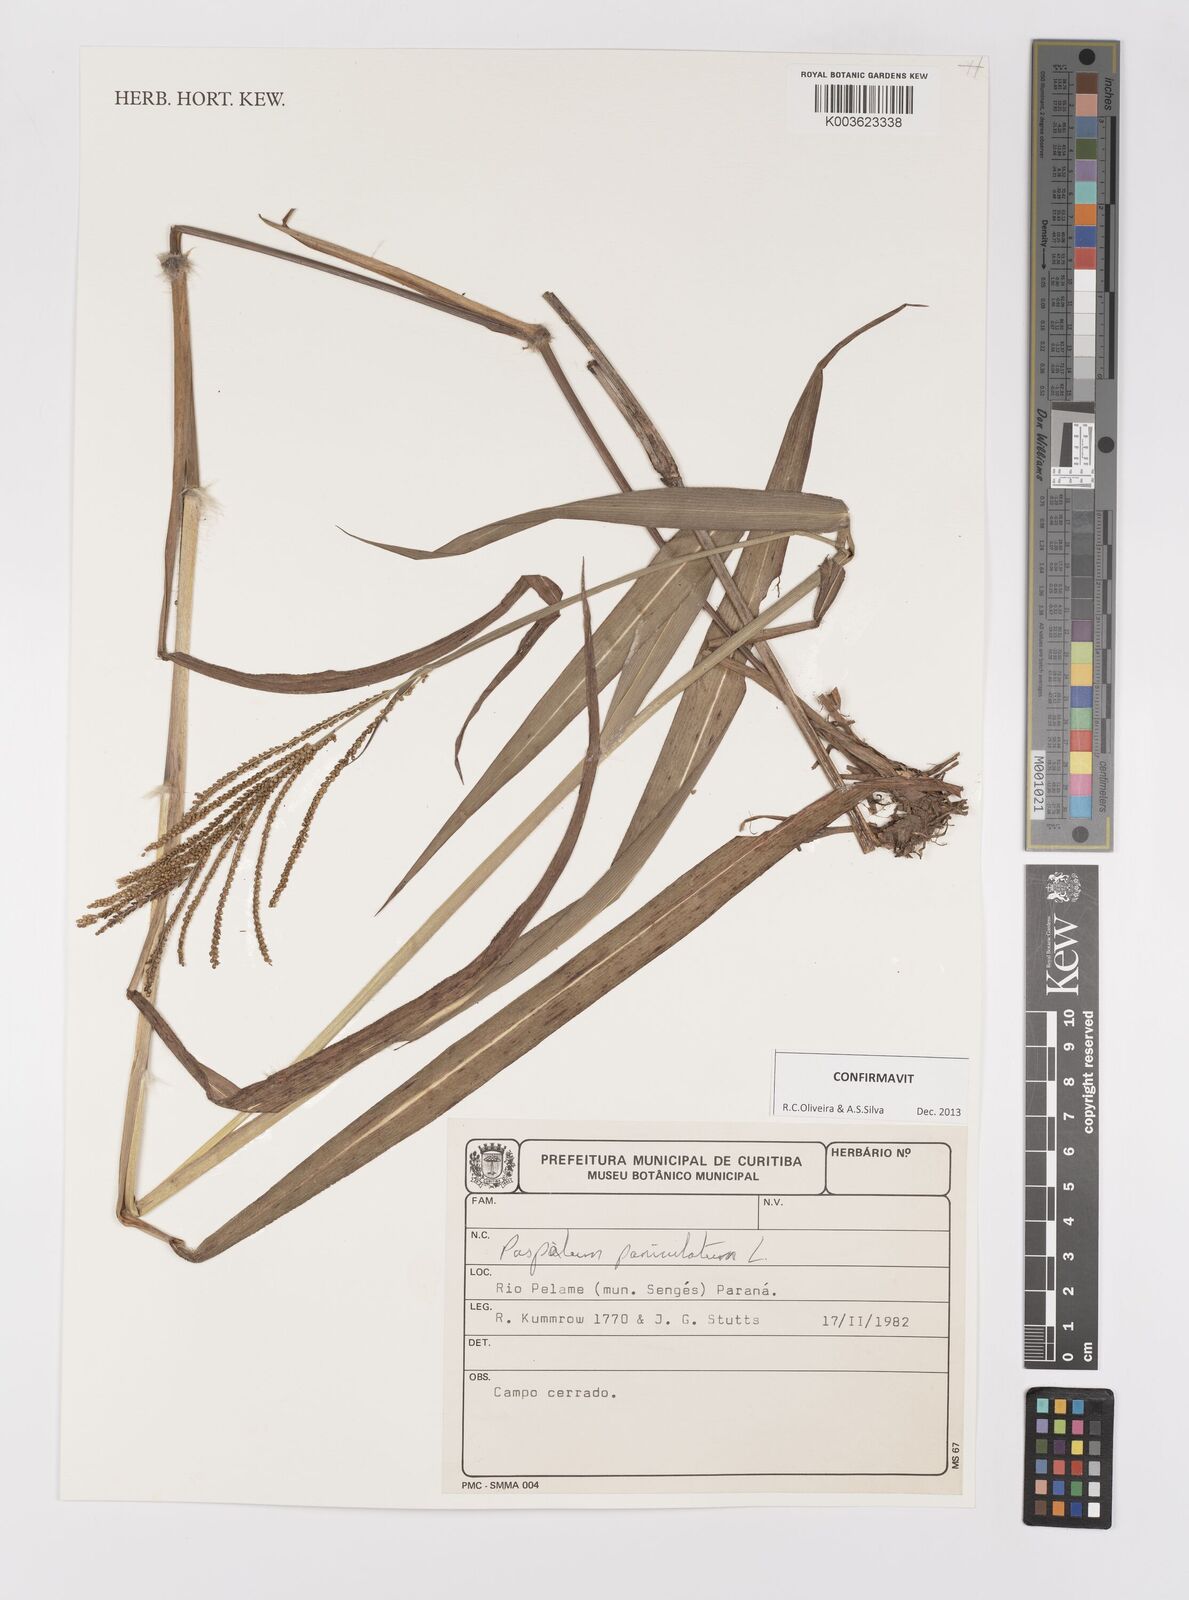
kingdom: Plantae
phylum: Tracheophyta
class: Liliopsida
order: Poales
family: Poaceae
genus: Paspalum
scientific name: Paspalum paniculatum
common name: Arrocillo
